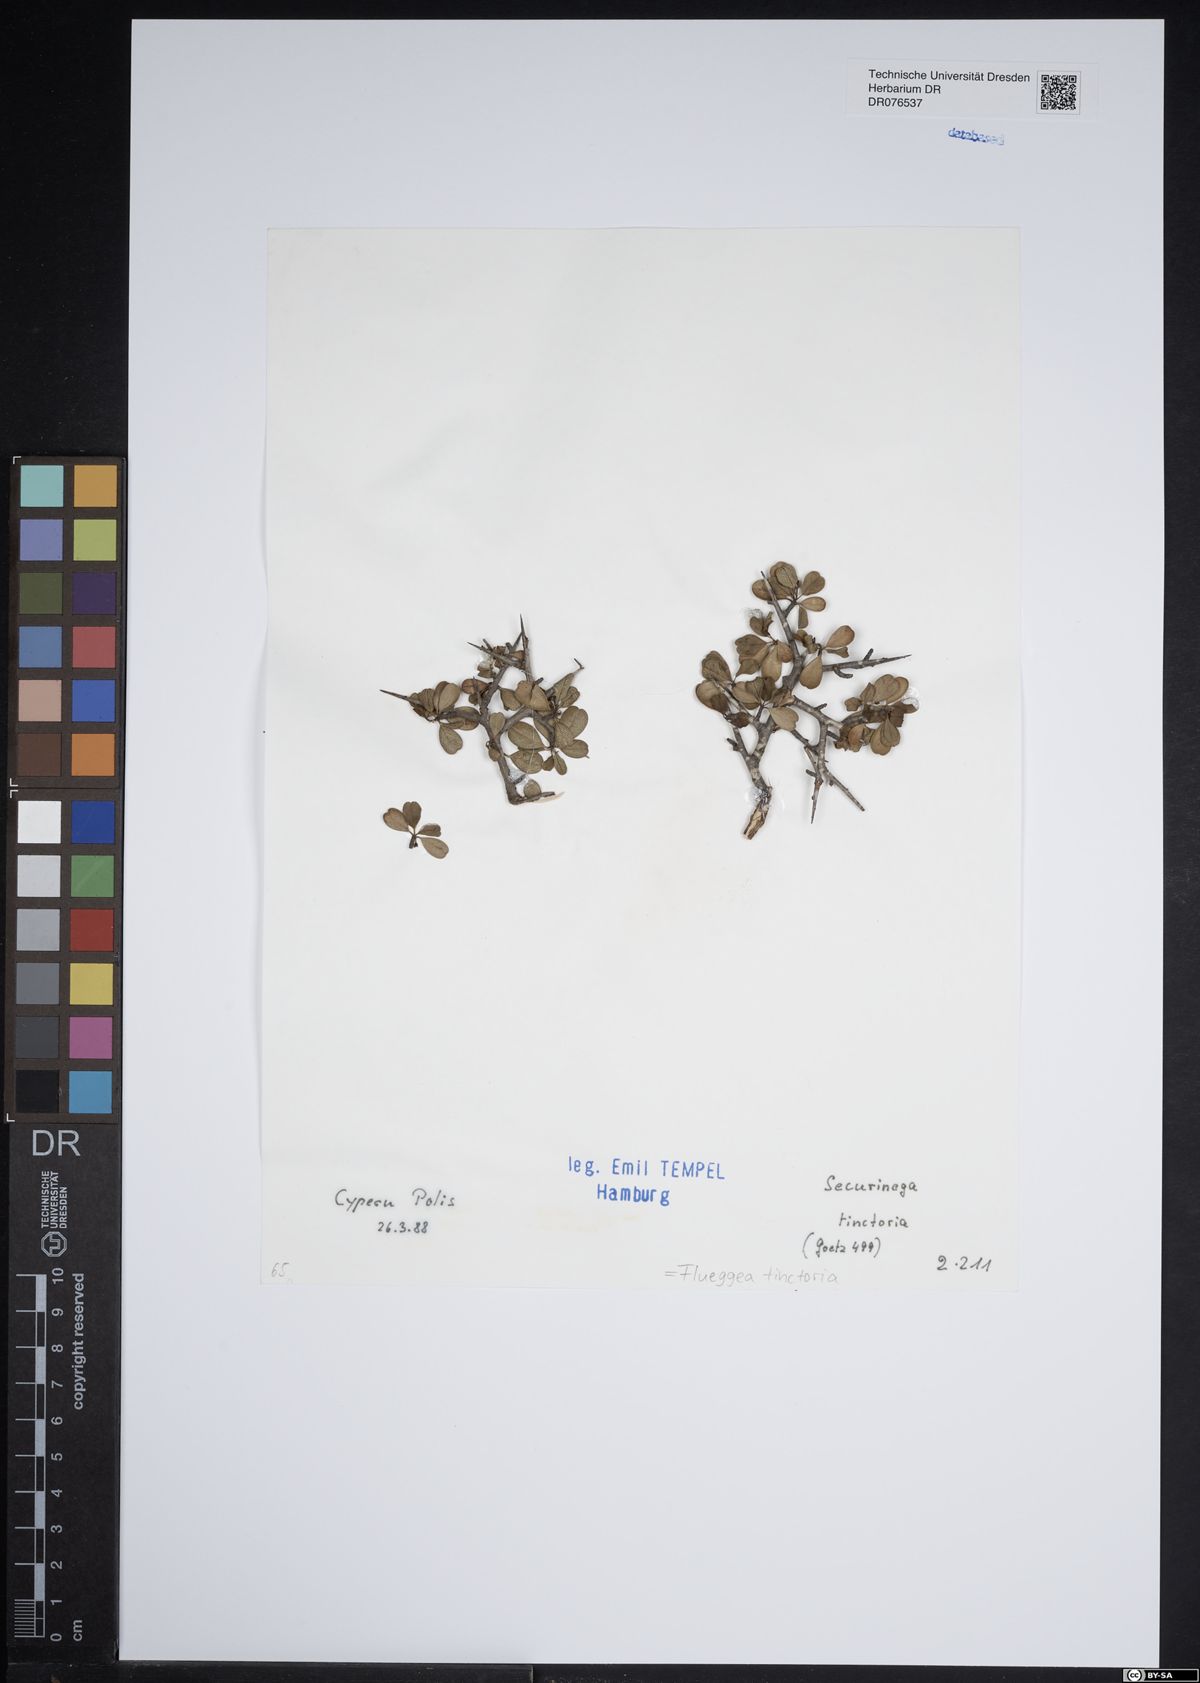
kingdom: Plantae
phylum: Tracheophyta
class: Magnoliopsida
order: Malpighiales
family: Phyllanthaceae
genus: Flueggea
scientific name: Flueggea tinctoria
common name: Tamujo
